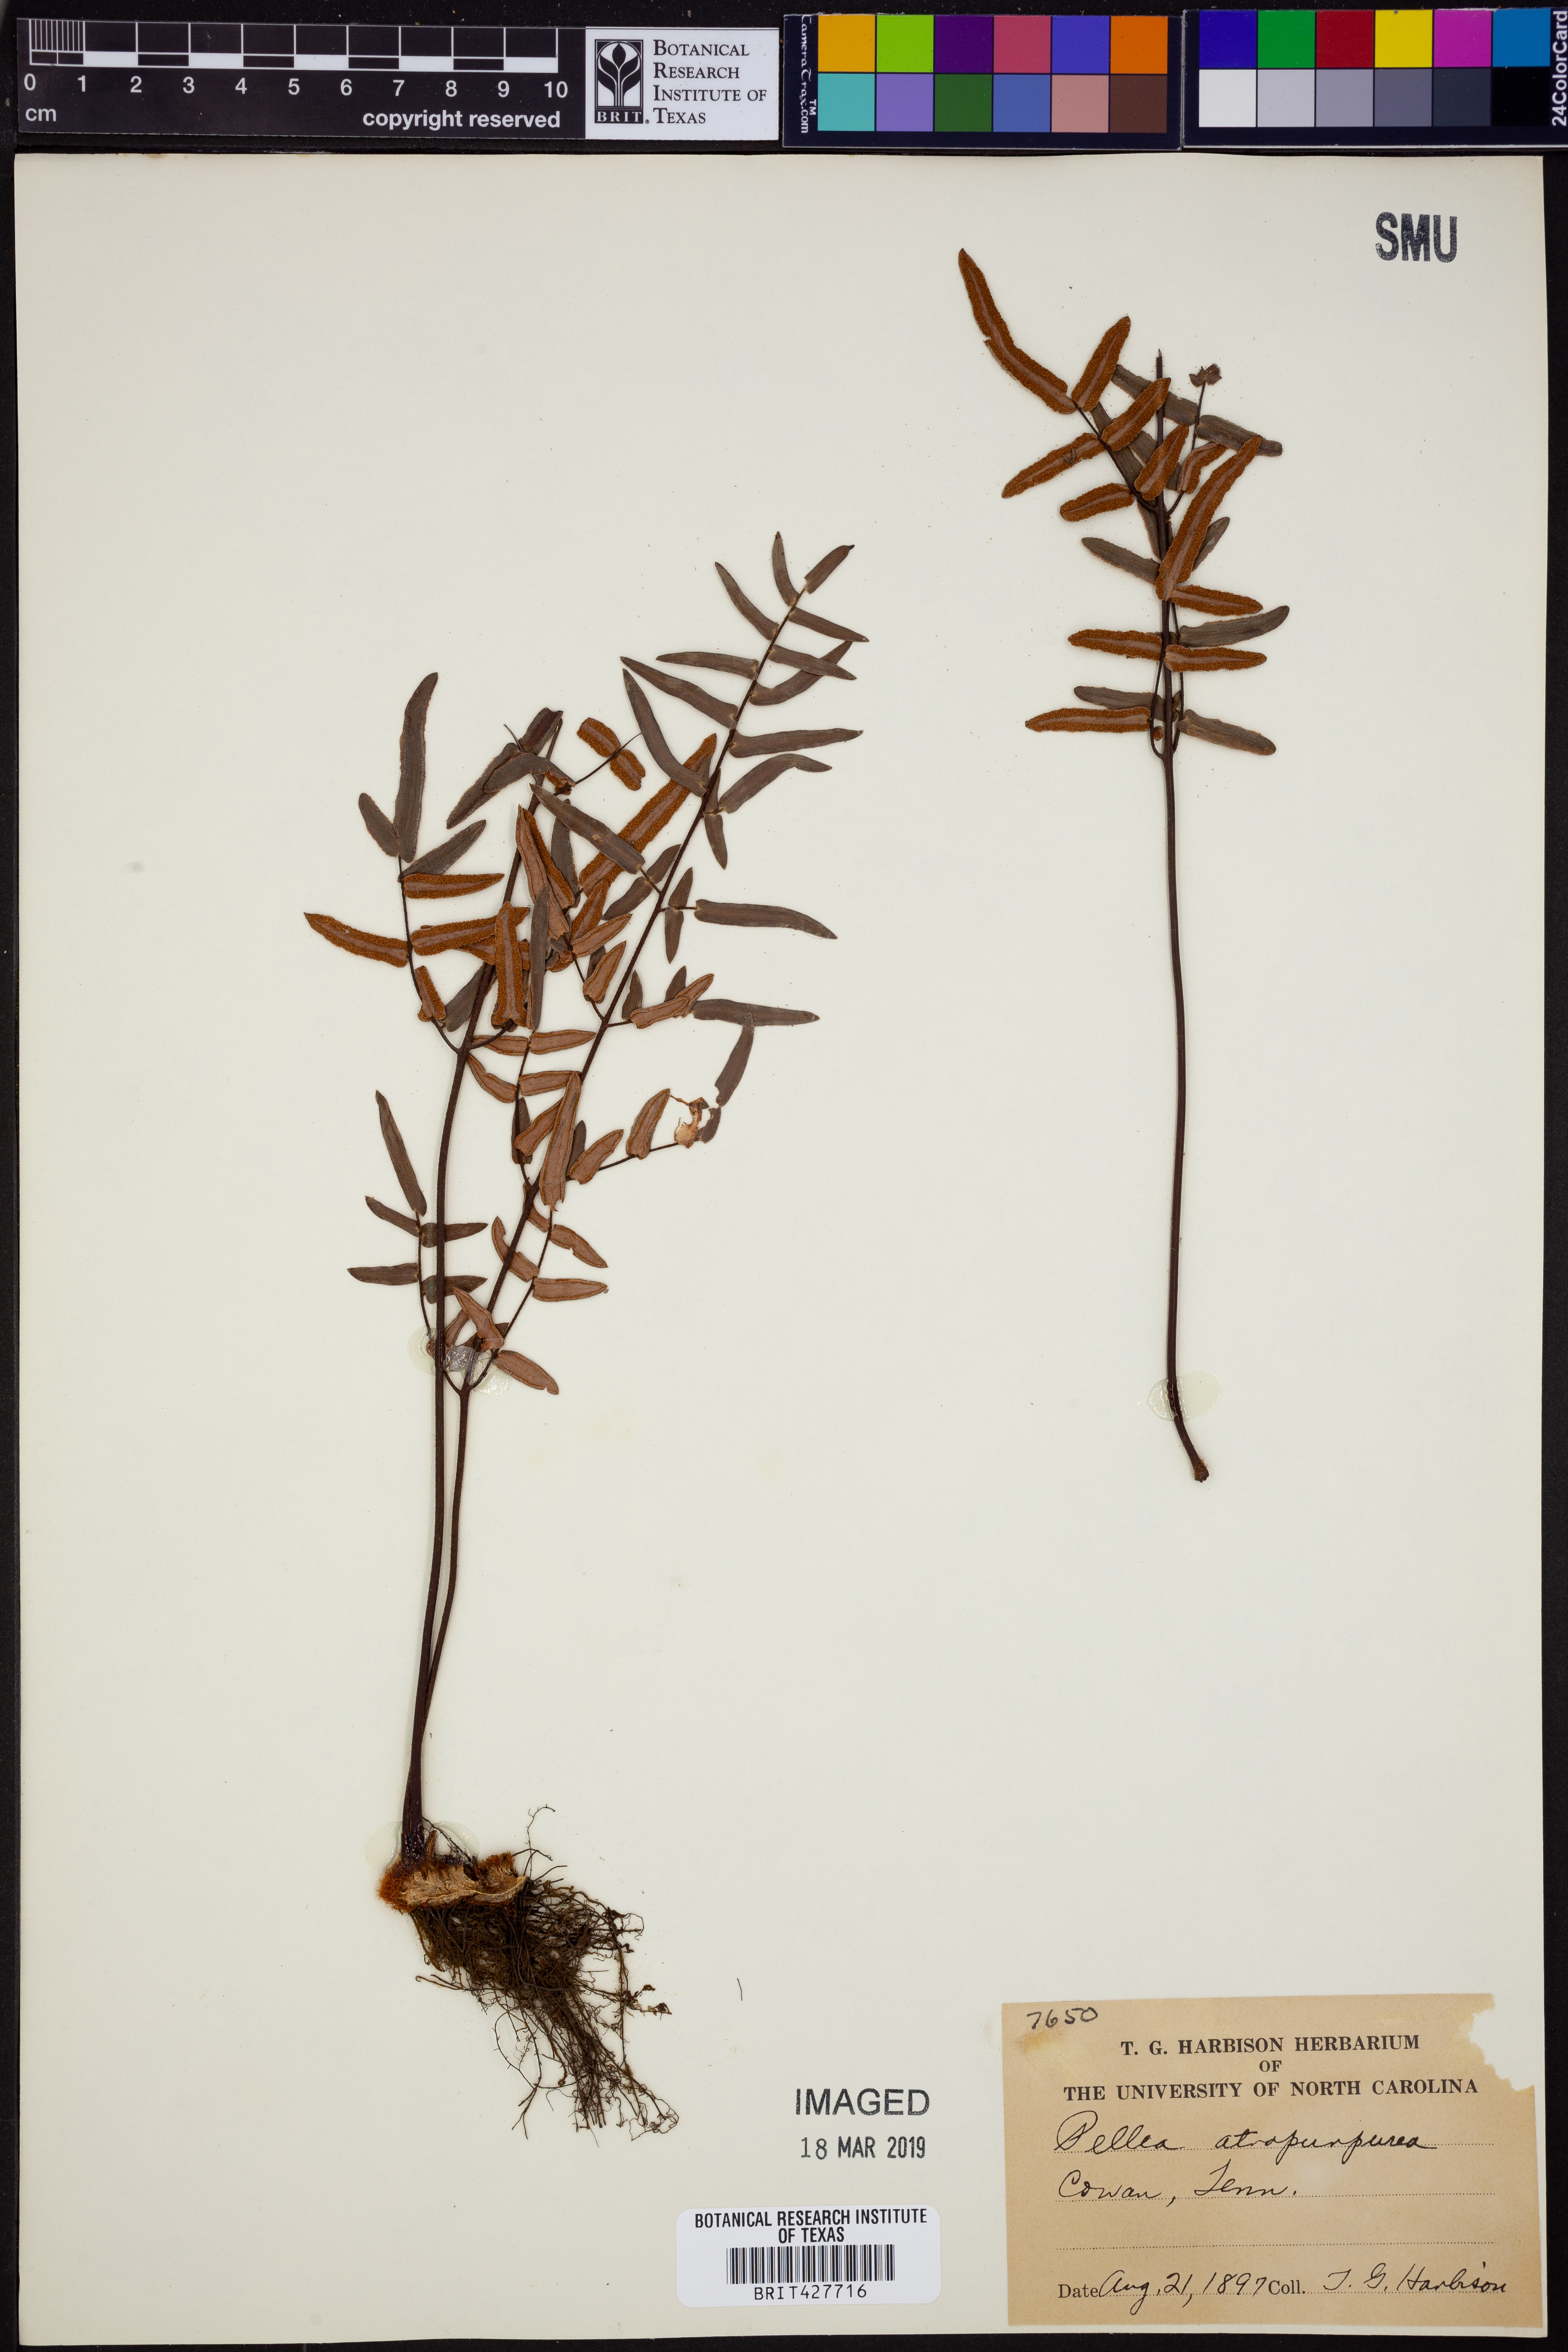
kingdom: Plantae
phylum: Tracheophyta
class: Polypodiopsida
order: Polypodiales
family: Pteridaceae
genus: Pellaea
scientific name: Pellaea atropurpurea
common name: Hairy cliffbrake
